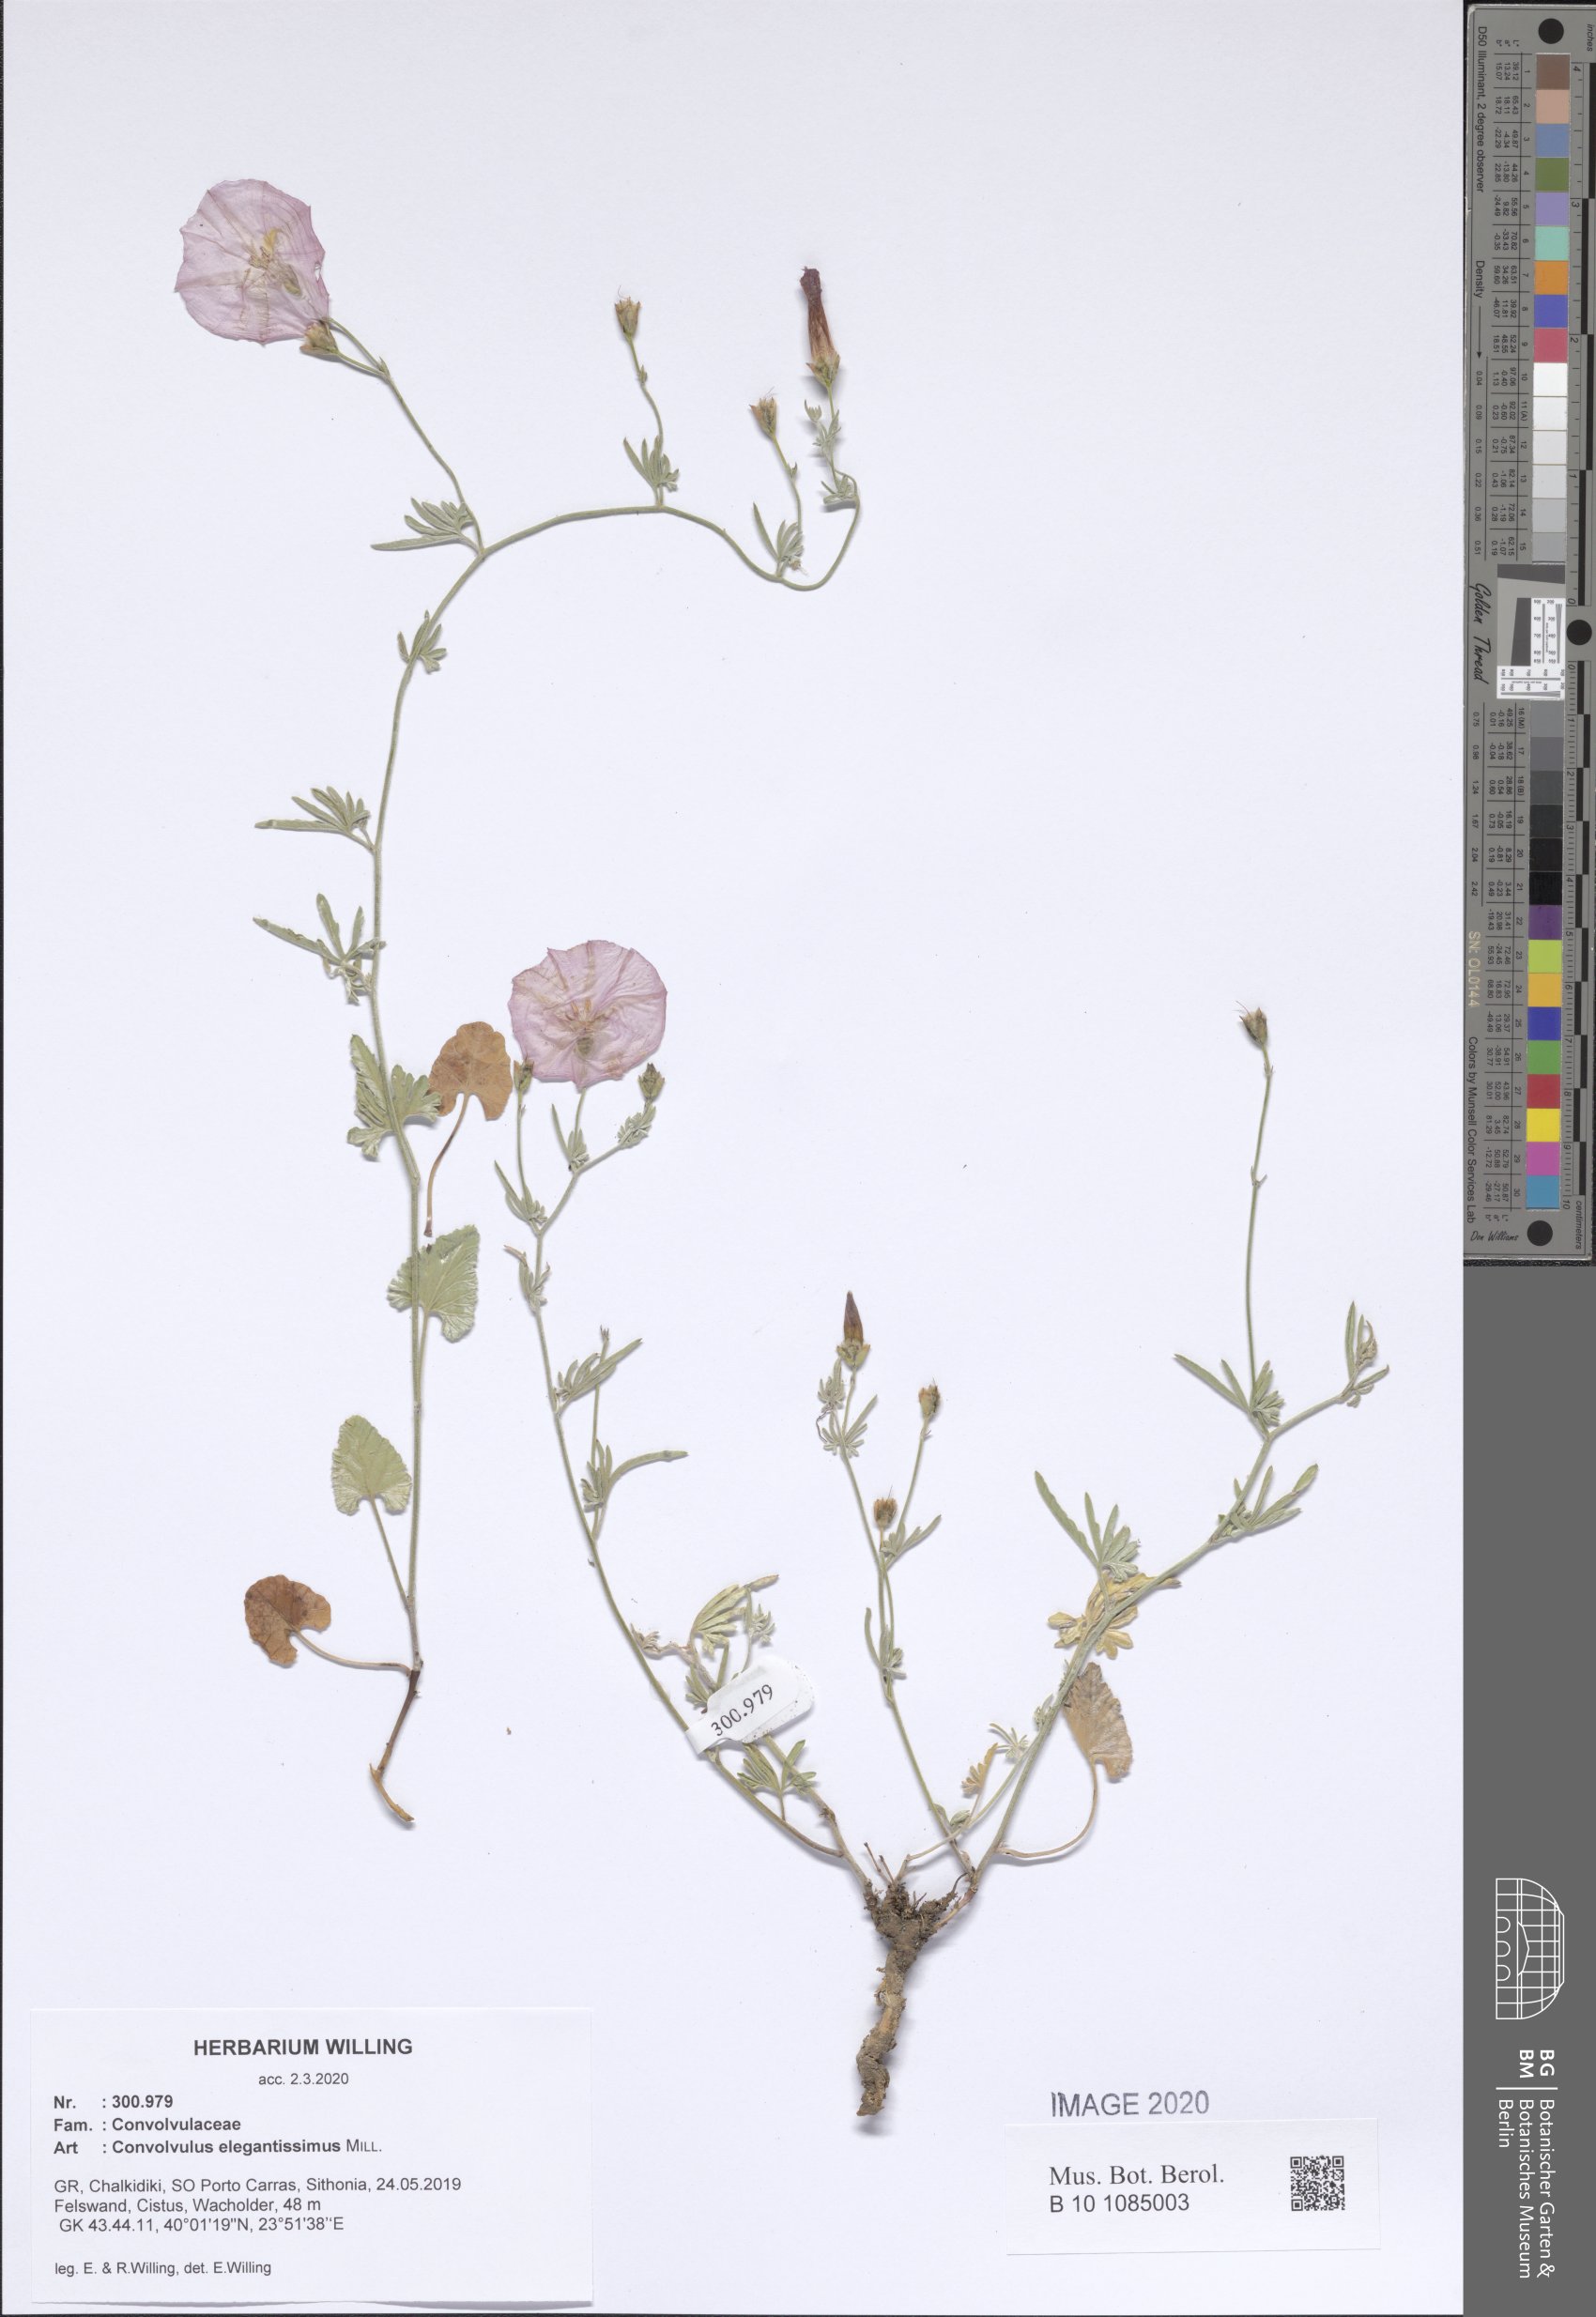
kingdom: Plantae
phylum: Tracheophyta
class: Magnoliopsida
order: Solanales
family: Convolvulaceae
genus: Convolvulus
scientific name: Convolvulus elegantissimus
